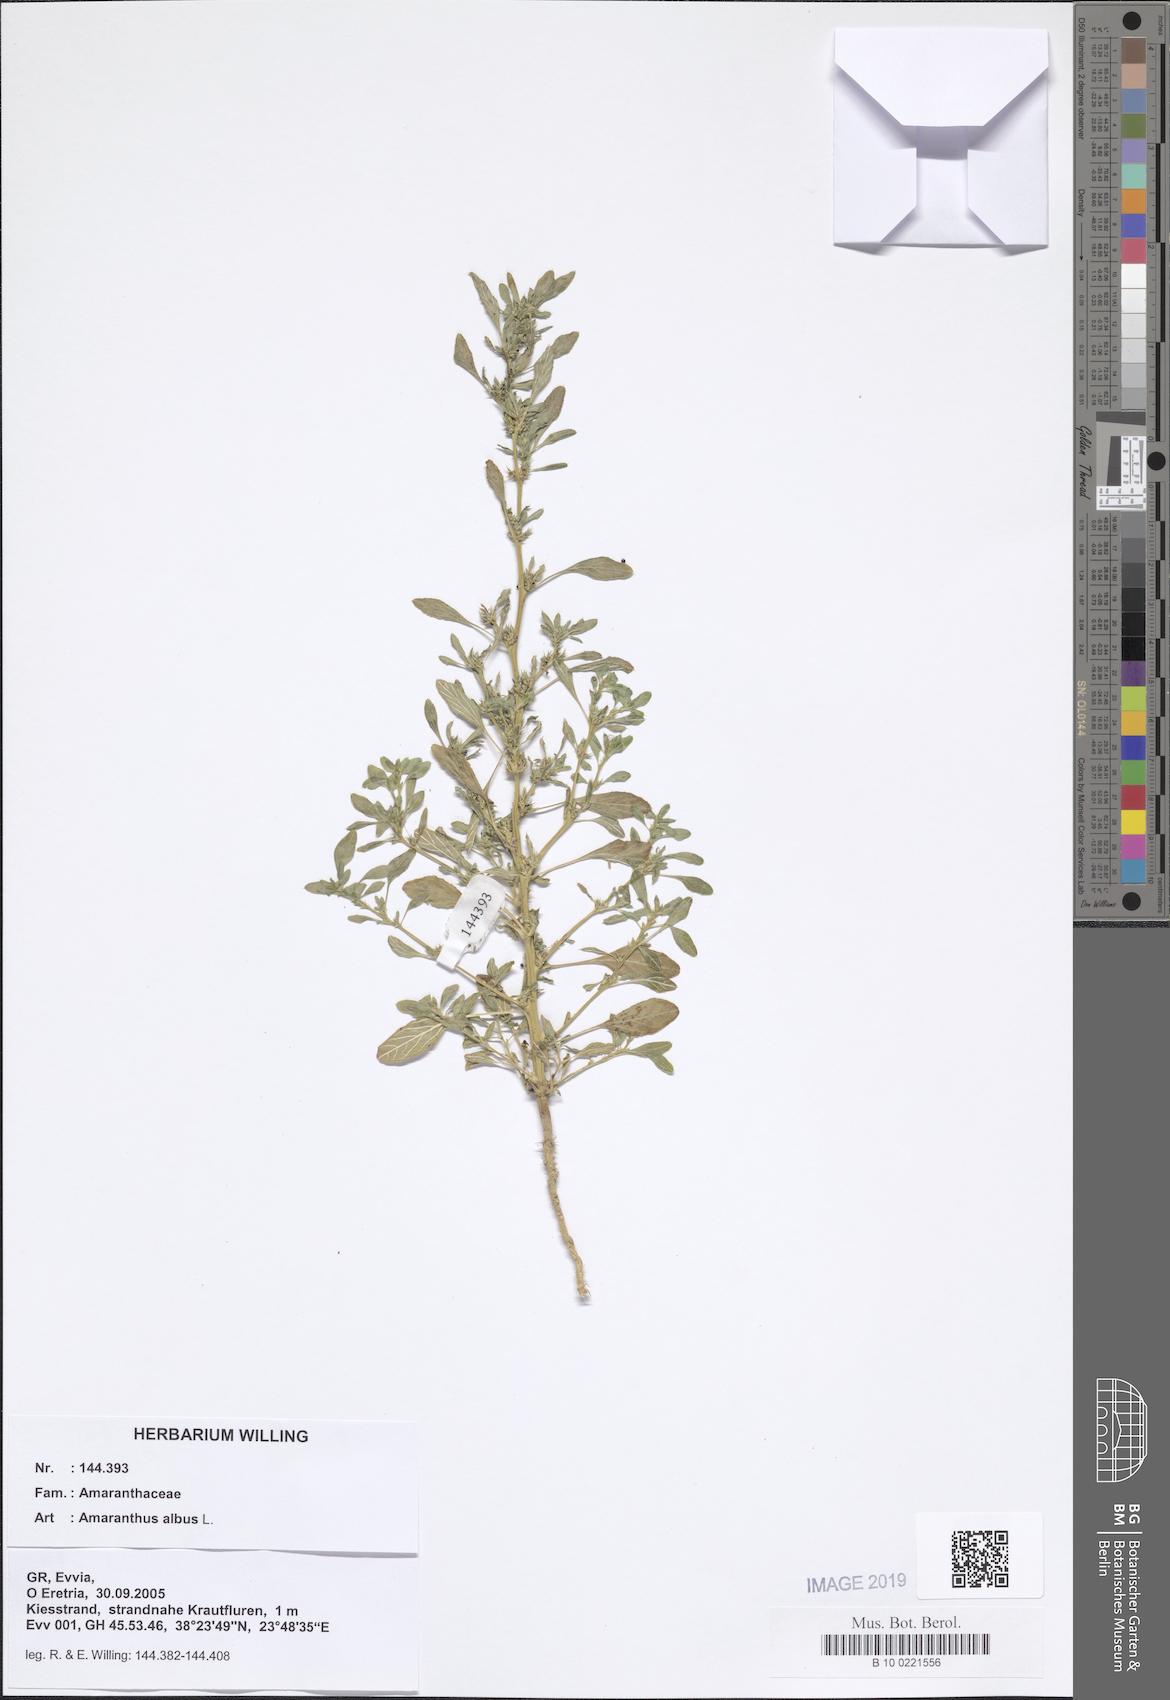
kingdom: Plantae
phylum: Tracheophyta
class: Magnoliopsida
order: Caryophyllales
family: Amaranthaceae
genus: Amaranthus
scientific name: Amaranthus albus
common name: White pigweed
